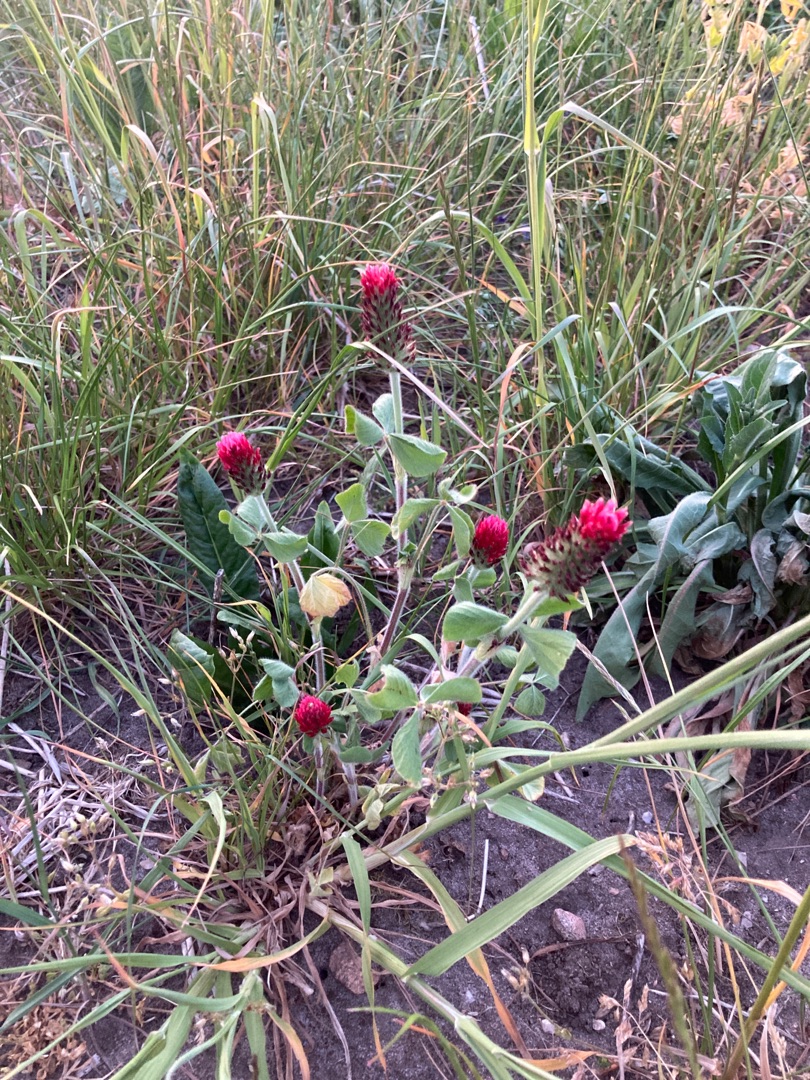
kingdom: Plantae
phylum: Tracheophyta
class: Magnoliopsida
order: Fabales
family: Fabaceae
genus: Trifolium
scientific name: Trifolium incarnatum
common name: Blod-kløver
